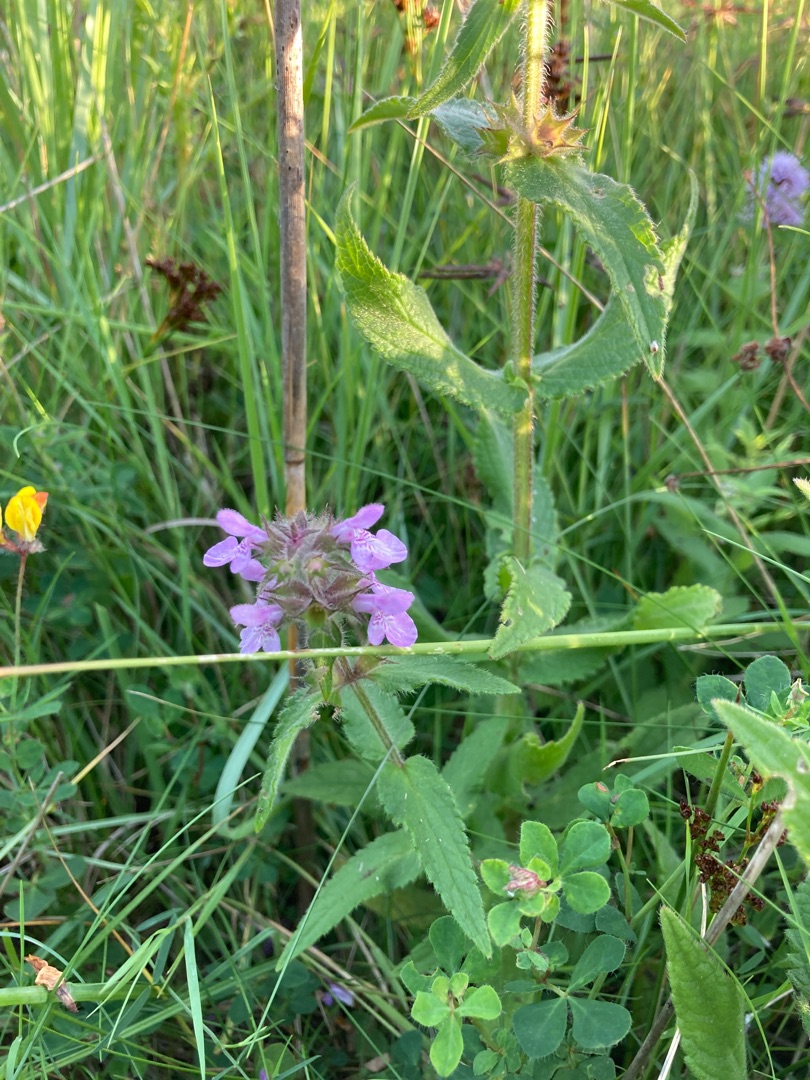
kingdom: Plantae
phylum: Tracheophyta
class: Magnoliopsida
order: Lamiales
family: Lamiaceae
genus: Stachys
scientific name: Stachys palustris
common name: Kær-galtetand
